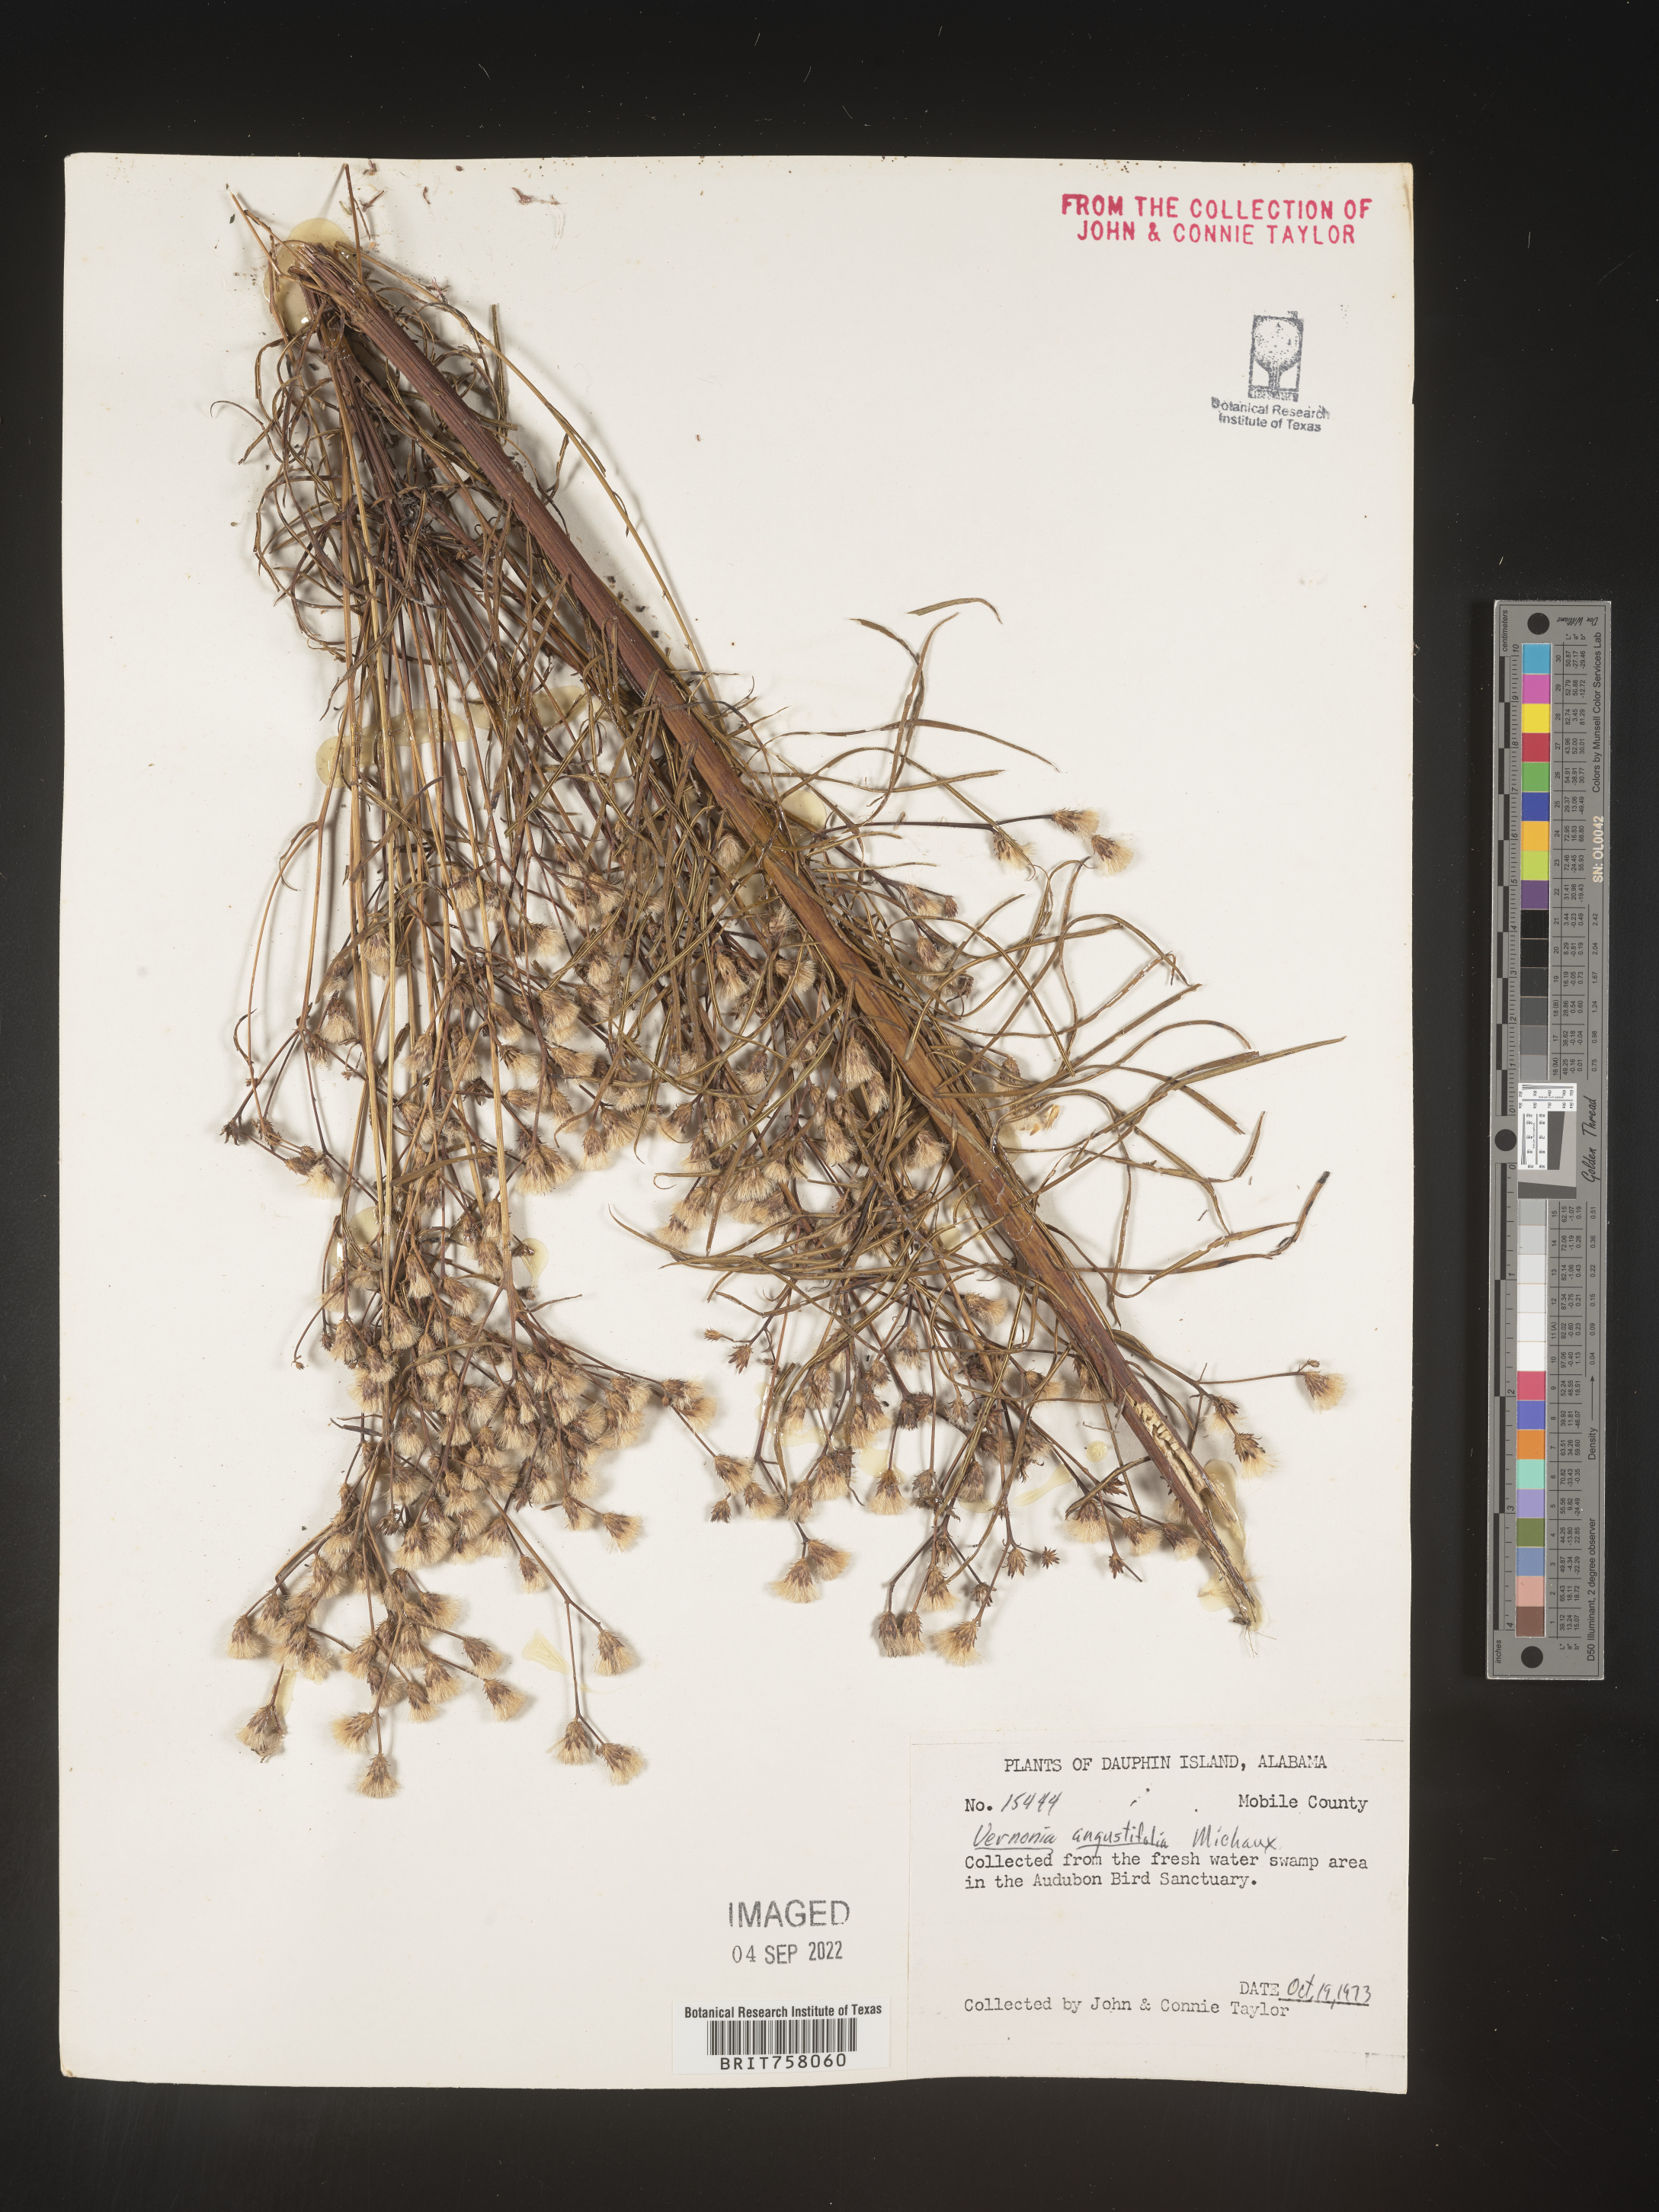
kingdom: Plantae
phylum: Tracheophyta
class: Magnoliopsida
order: Asterales
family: Asteraceae
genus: Vernonia
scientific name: Vernonia angustifolia
